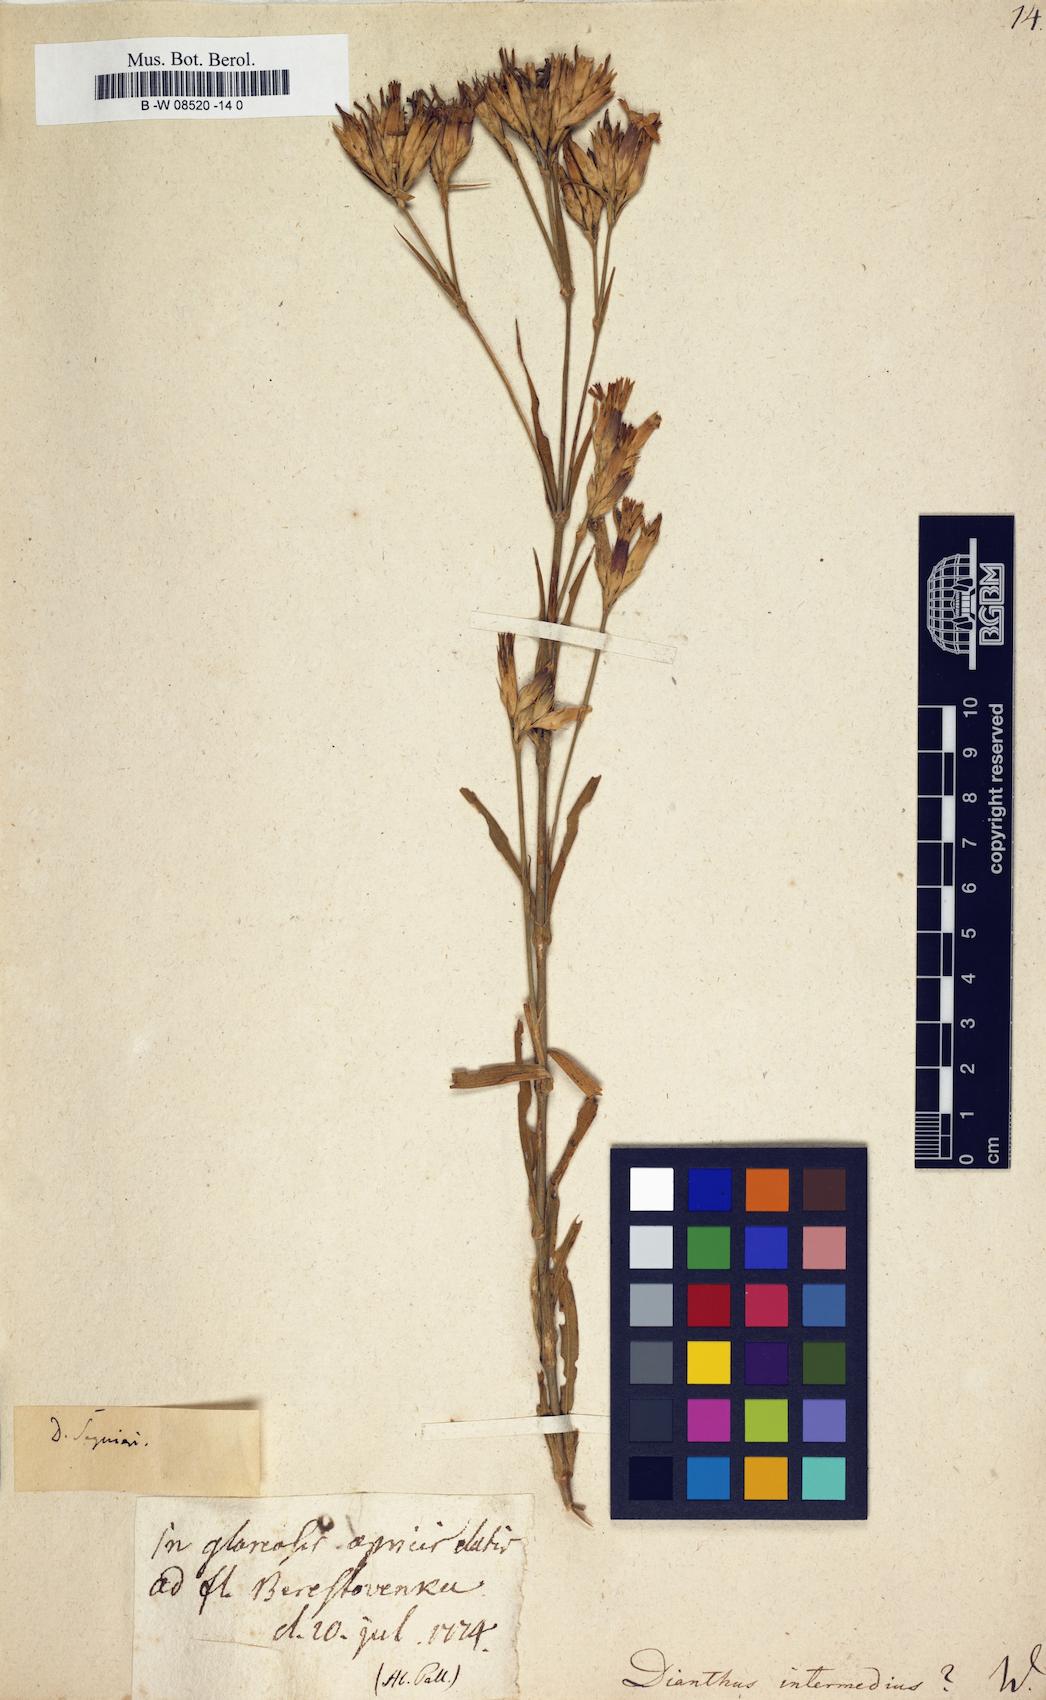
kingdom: Plantae
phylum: Tracheophyta
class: Magnoliopsida
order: Caryophyllales
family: Caryophyllaceae
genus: Dianthus
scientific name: Dianthus
